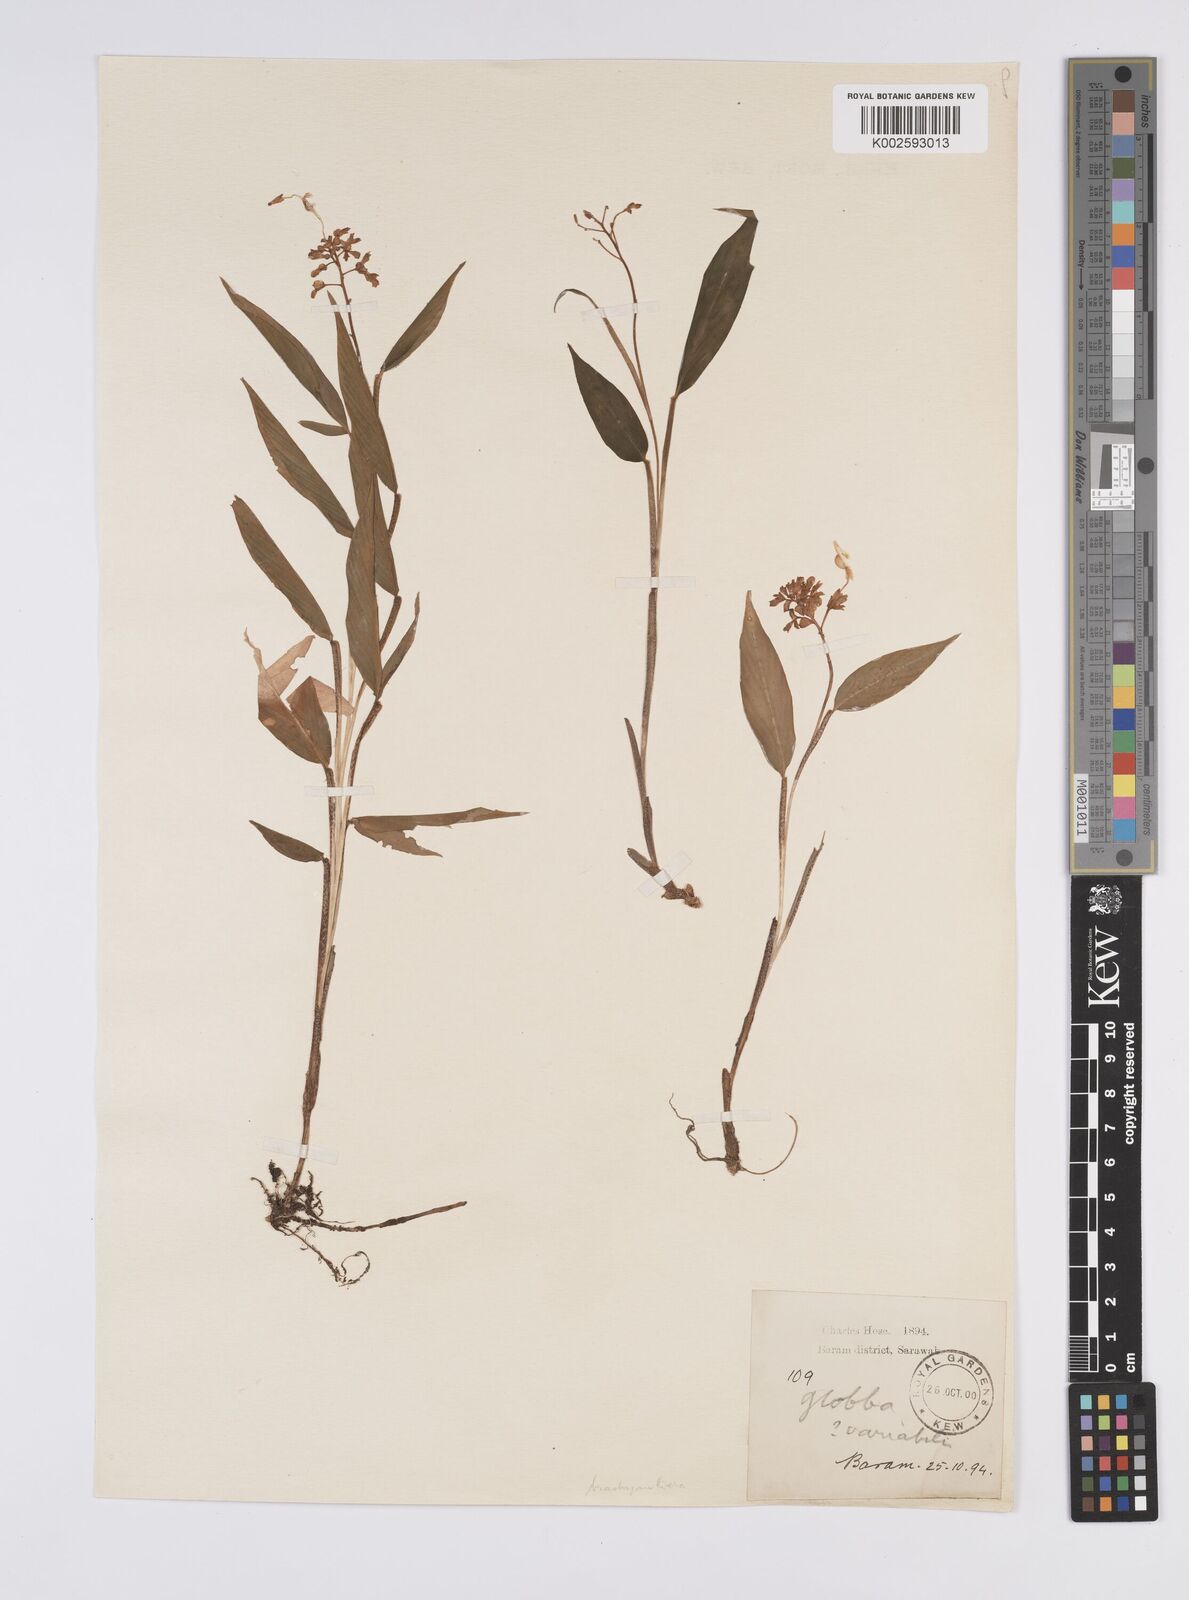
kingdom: Plantae
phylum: Tracheophyta
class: Liliopsida
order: Zingiberales
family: Zingiberaceae
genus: Globba
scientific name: Globba brachyanthera
